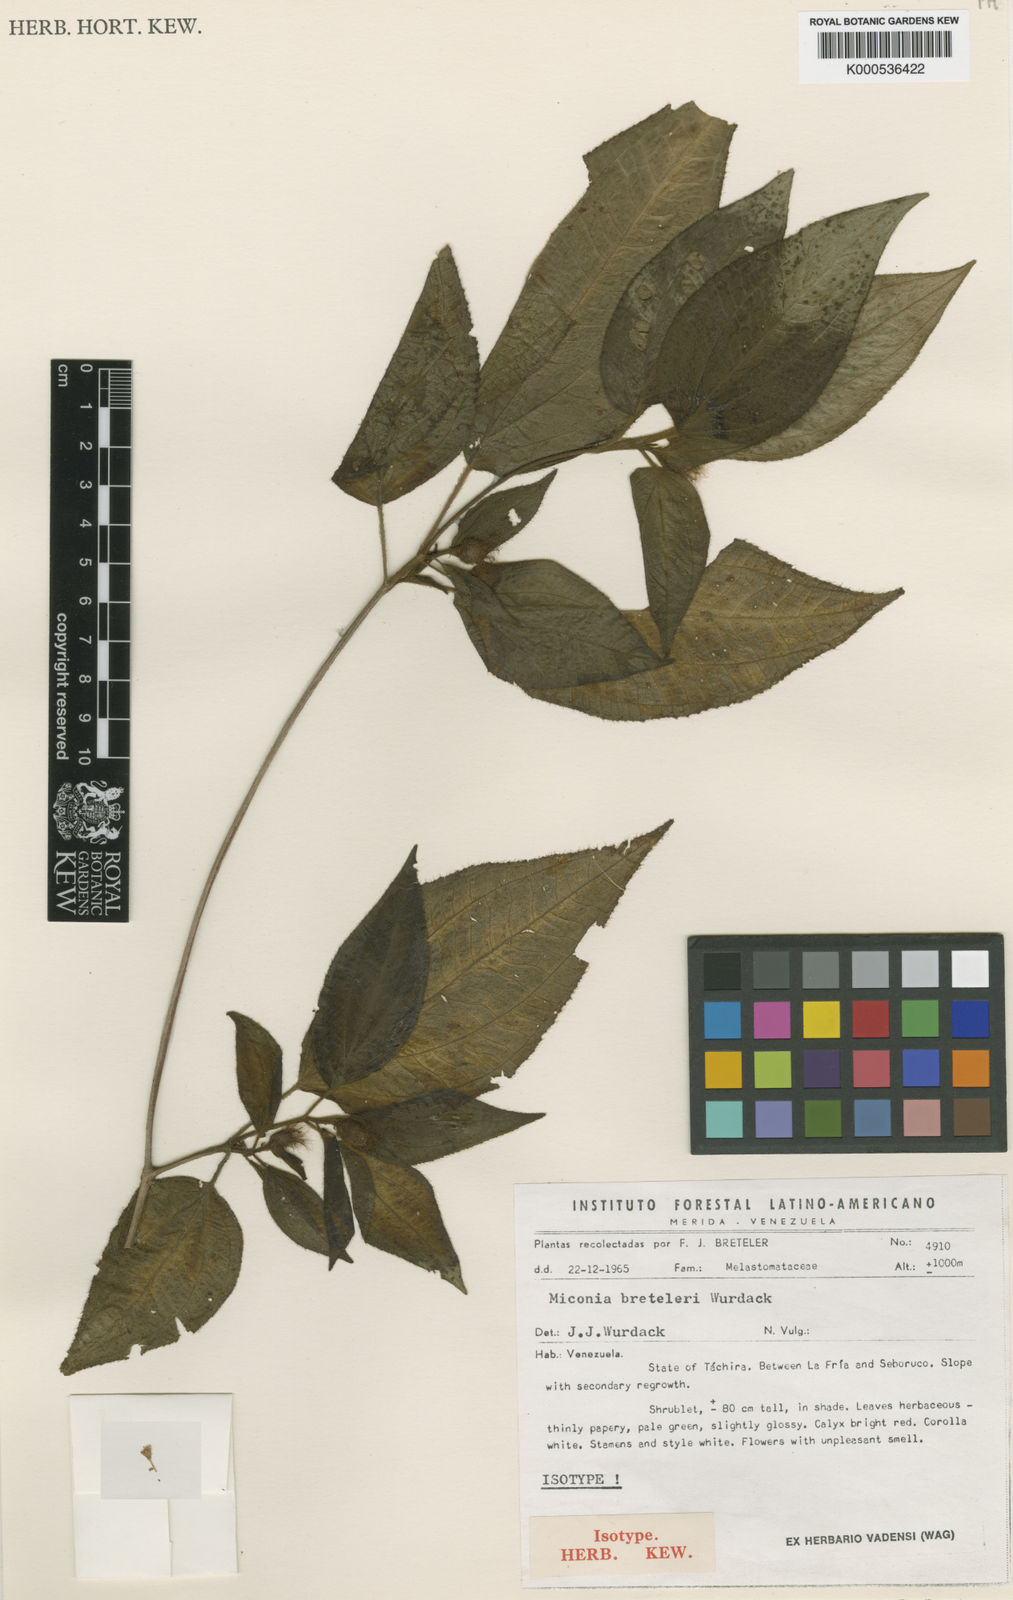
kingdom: Plantae
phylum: Tracheophyta
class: Magnoliopsida
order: Myrtales
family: Melastomataceae
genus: Miconia
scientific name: Miconia breteleri
